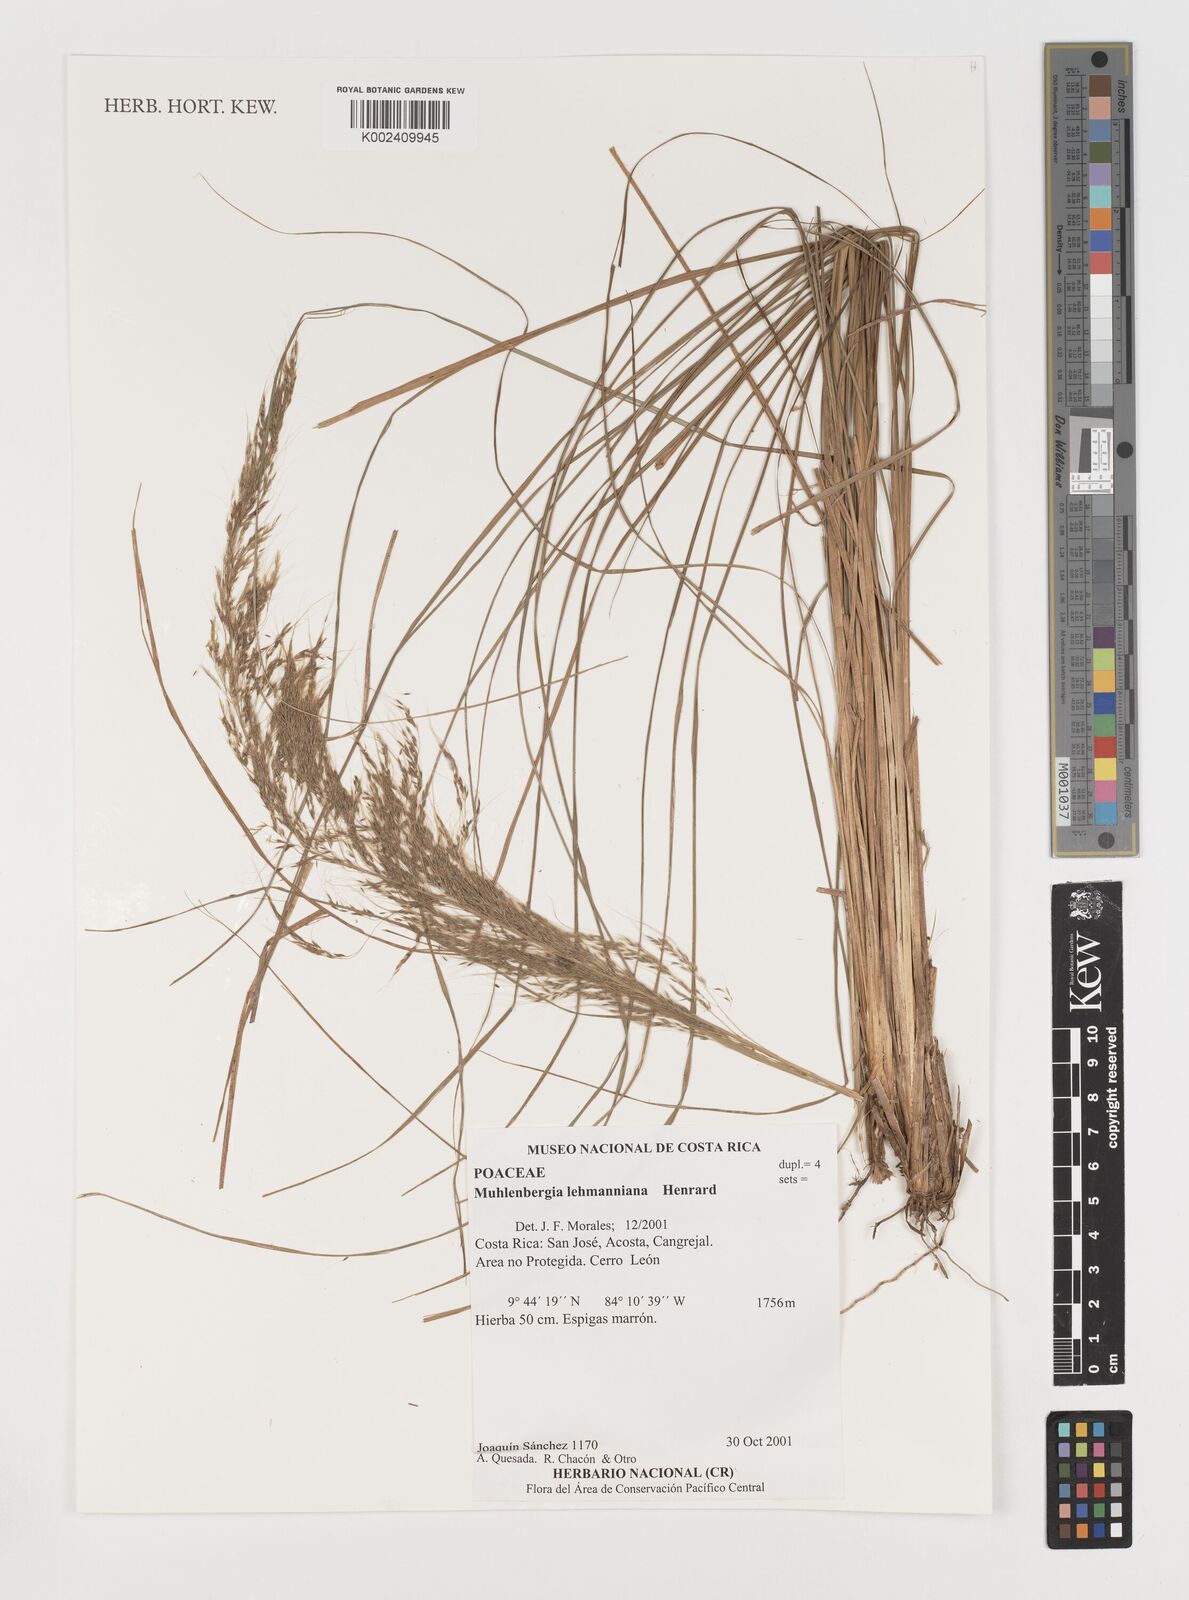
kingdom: Plantae
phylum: Tracheophyta
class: Liliopsida
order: Poales
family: Poaceae
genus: Muhlenbergia
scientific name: Muhlenbergia lehmanniana
